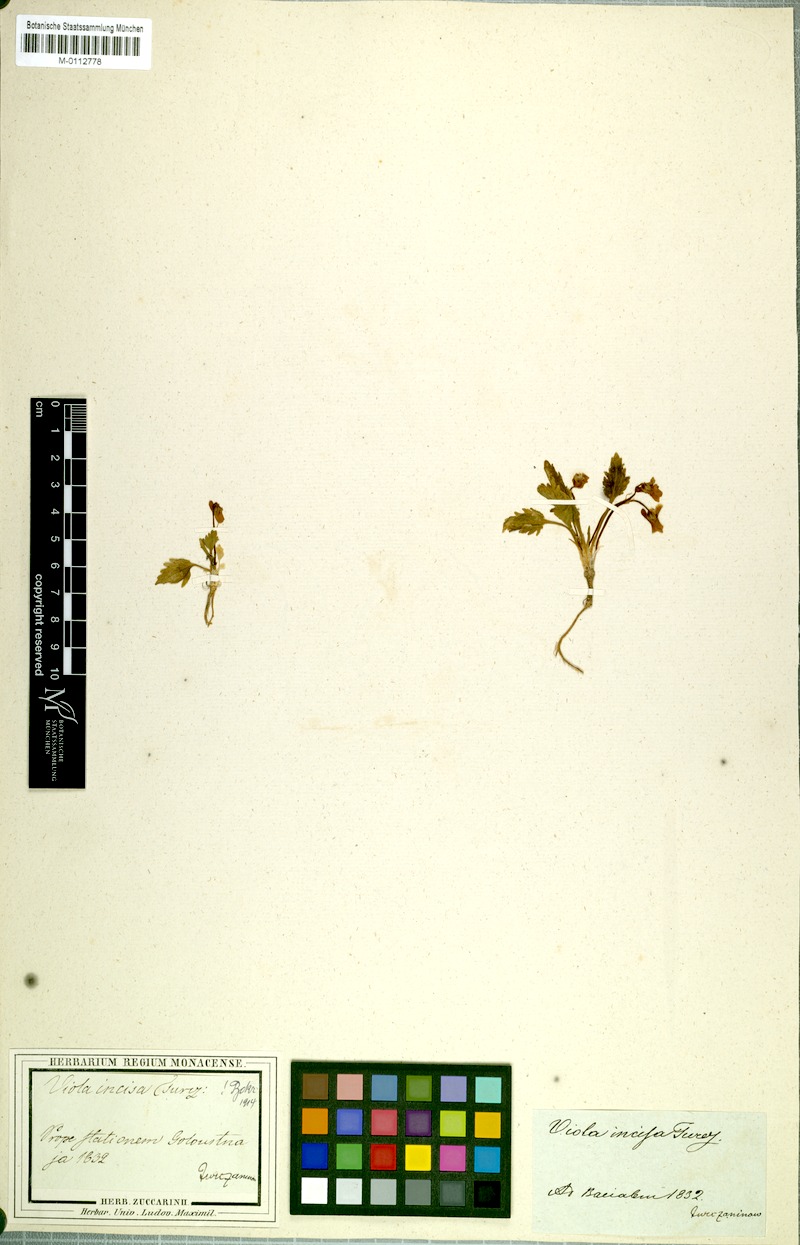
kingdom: Plantae
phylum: Tracheophyta
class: Magnoliopsida
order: Malpighiales
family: Violaceae
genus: Viola
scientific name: Viola incisa
